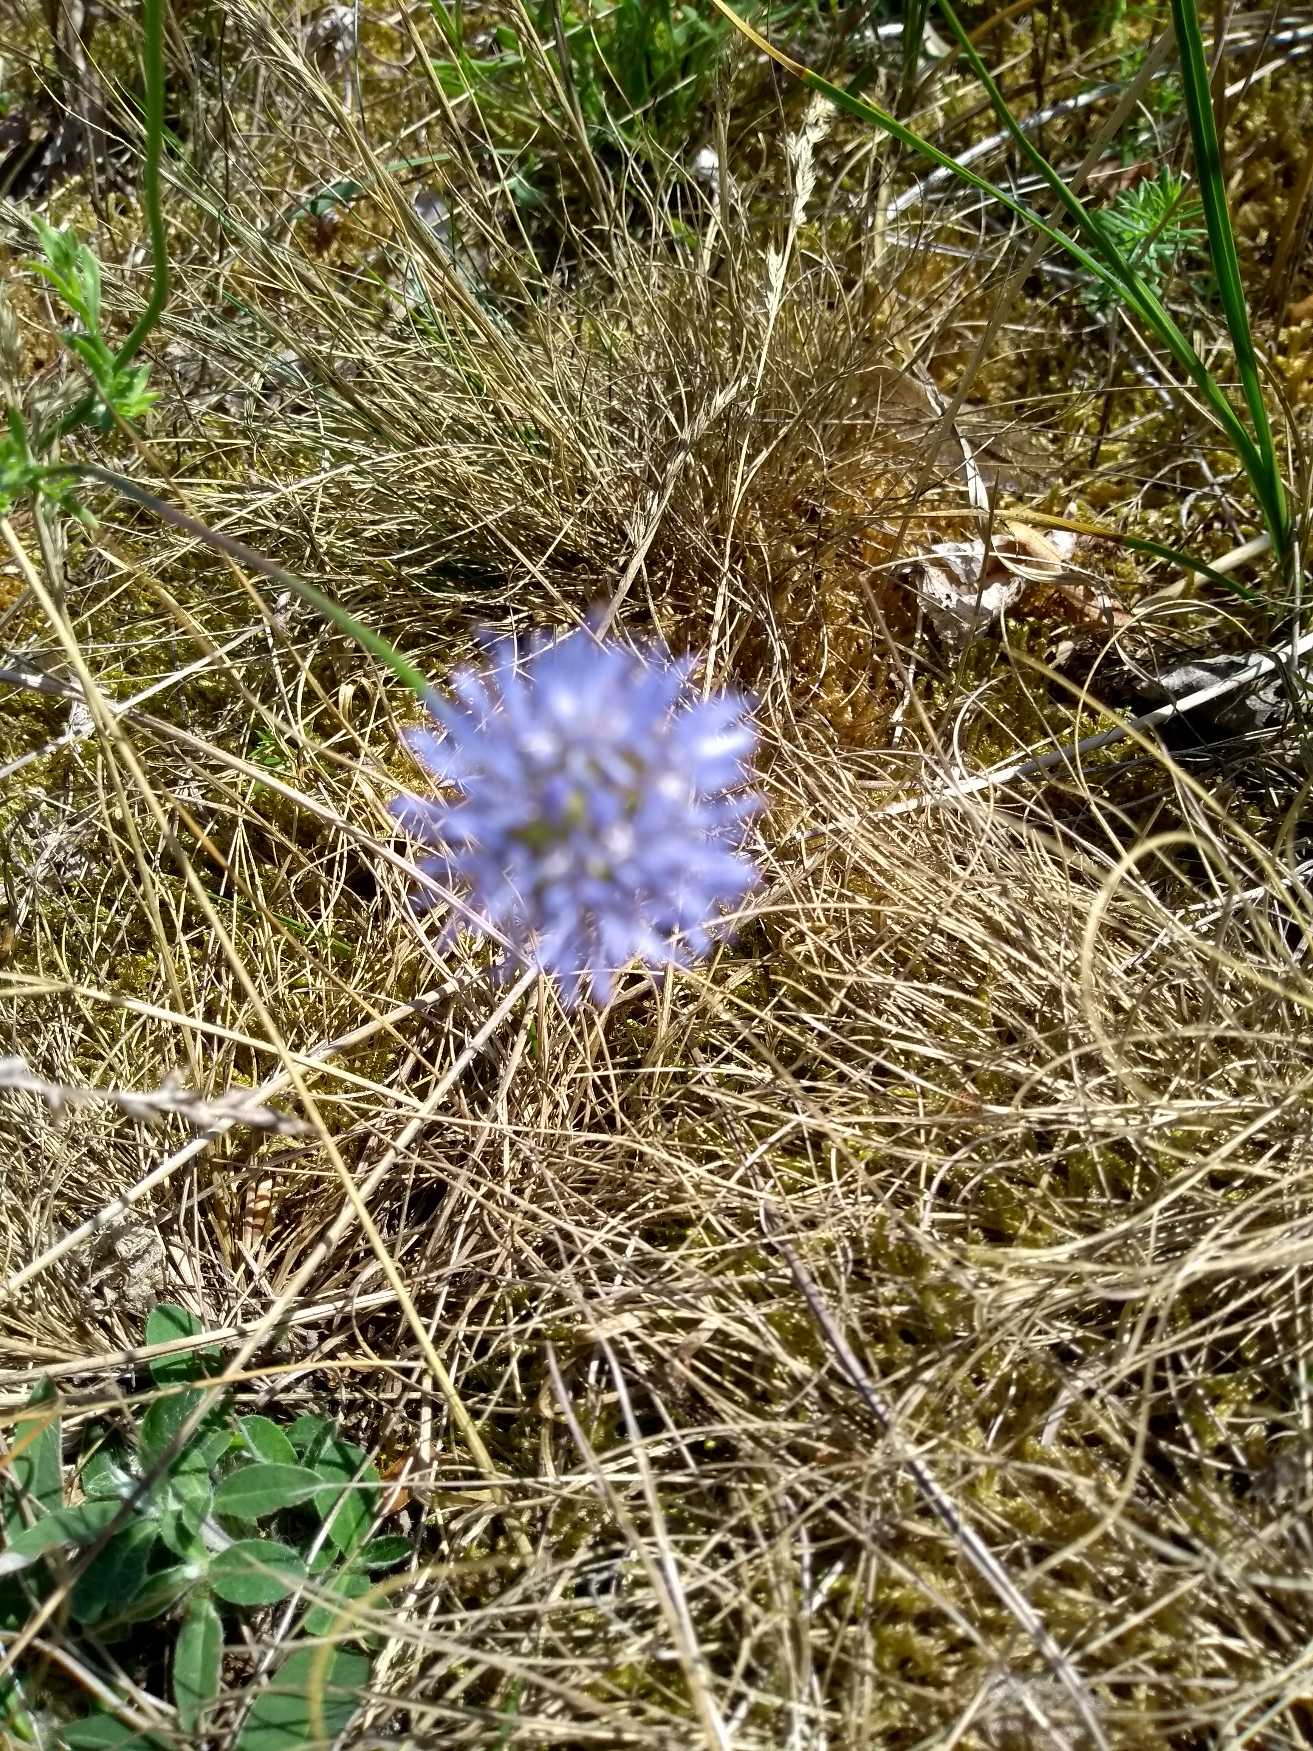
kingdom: Plantae
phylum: Tracheophyta
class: Magnoliopsida
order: Asterales
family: Campanulaceae
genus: Jasione
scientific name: Jasione montana
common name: Blåmunke
